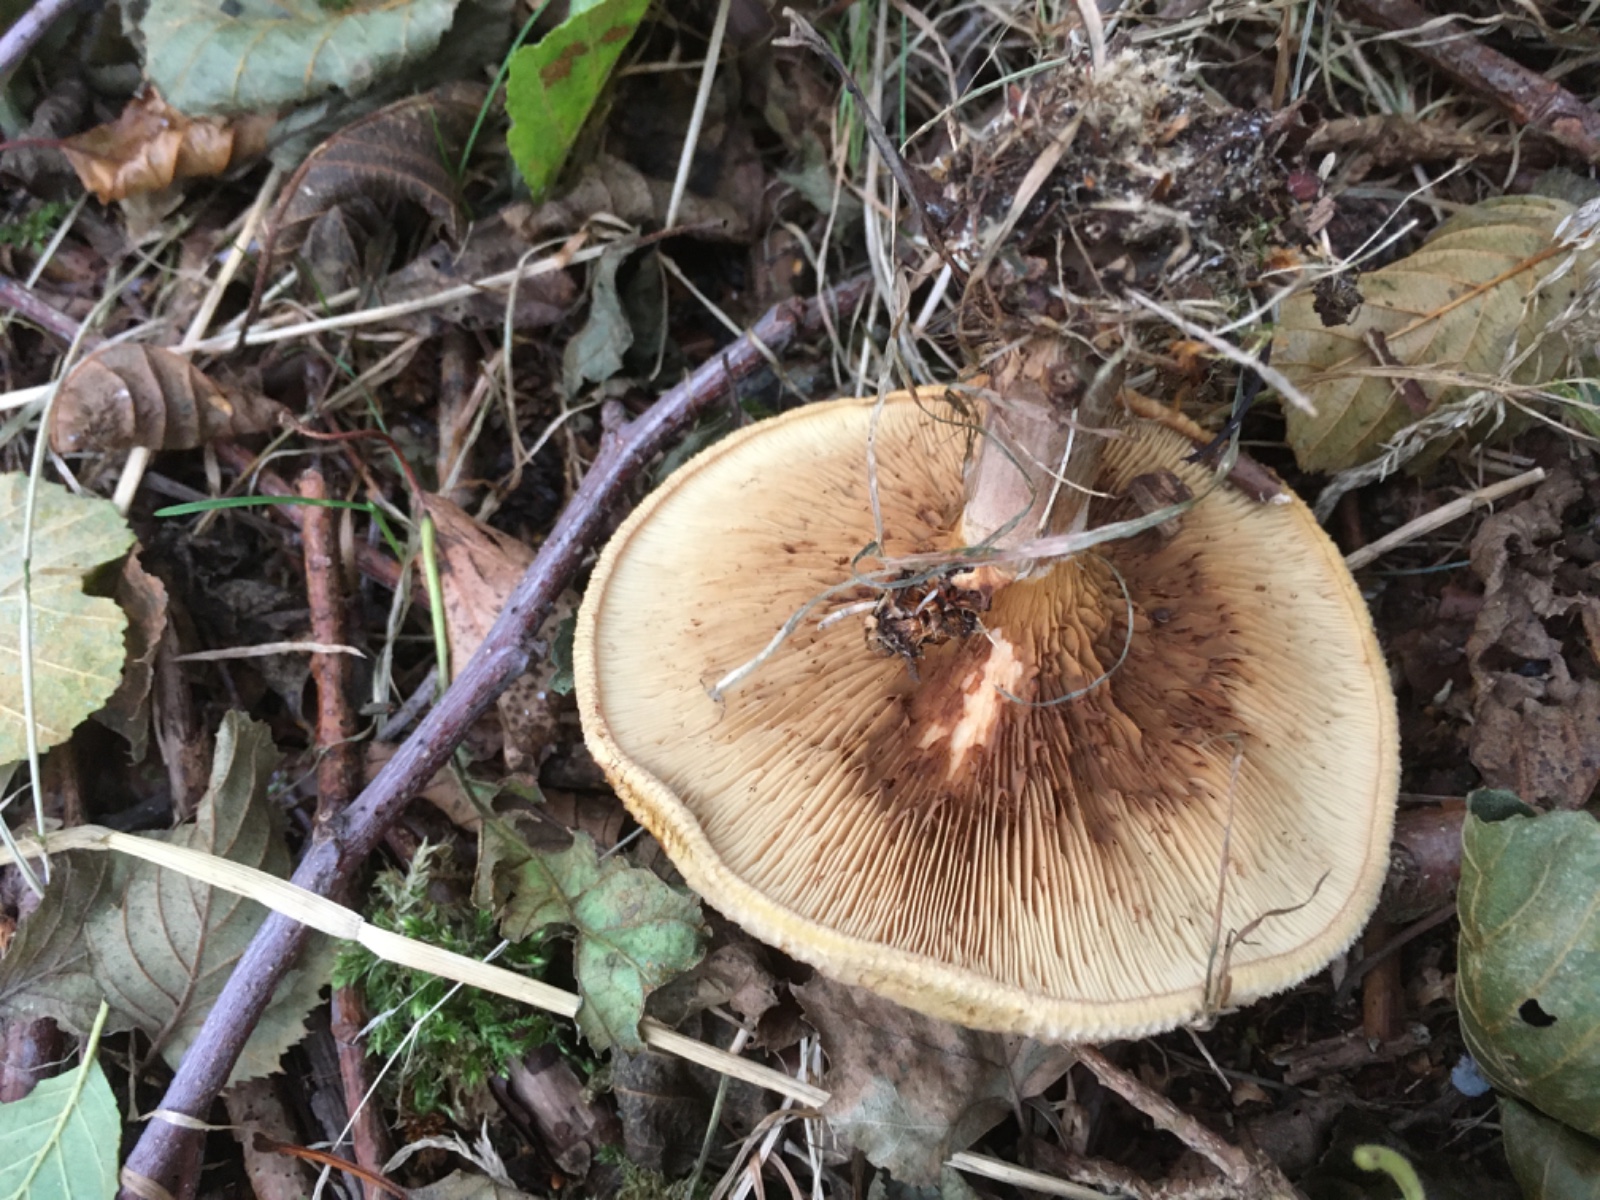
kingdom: Fungi
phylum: Basidiomycota
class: Agaricomycetes
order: Boletales
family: Paxillaceae
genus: Paxillus
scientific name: Paxillus
